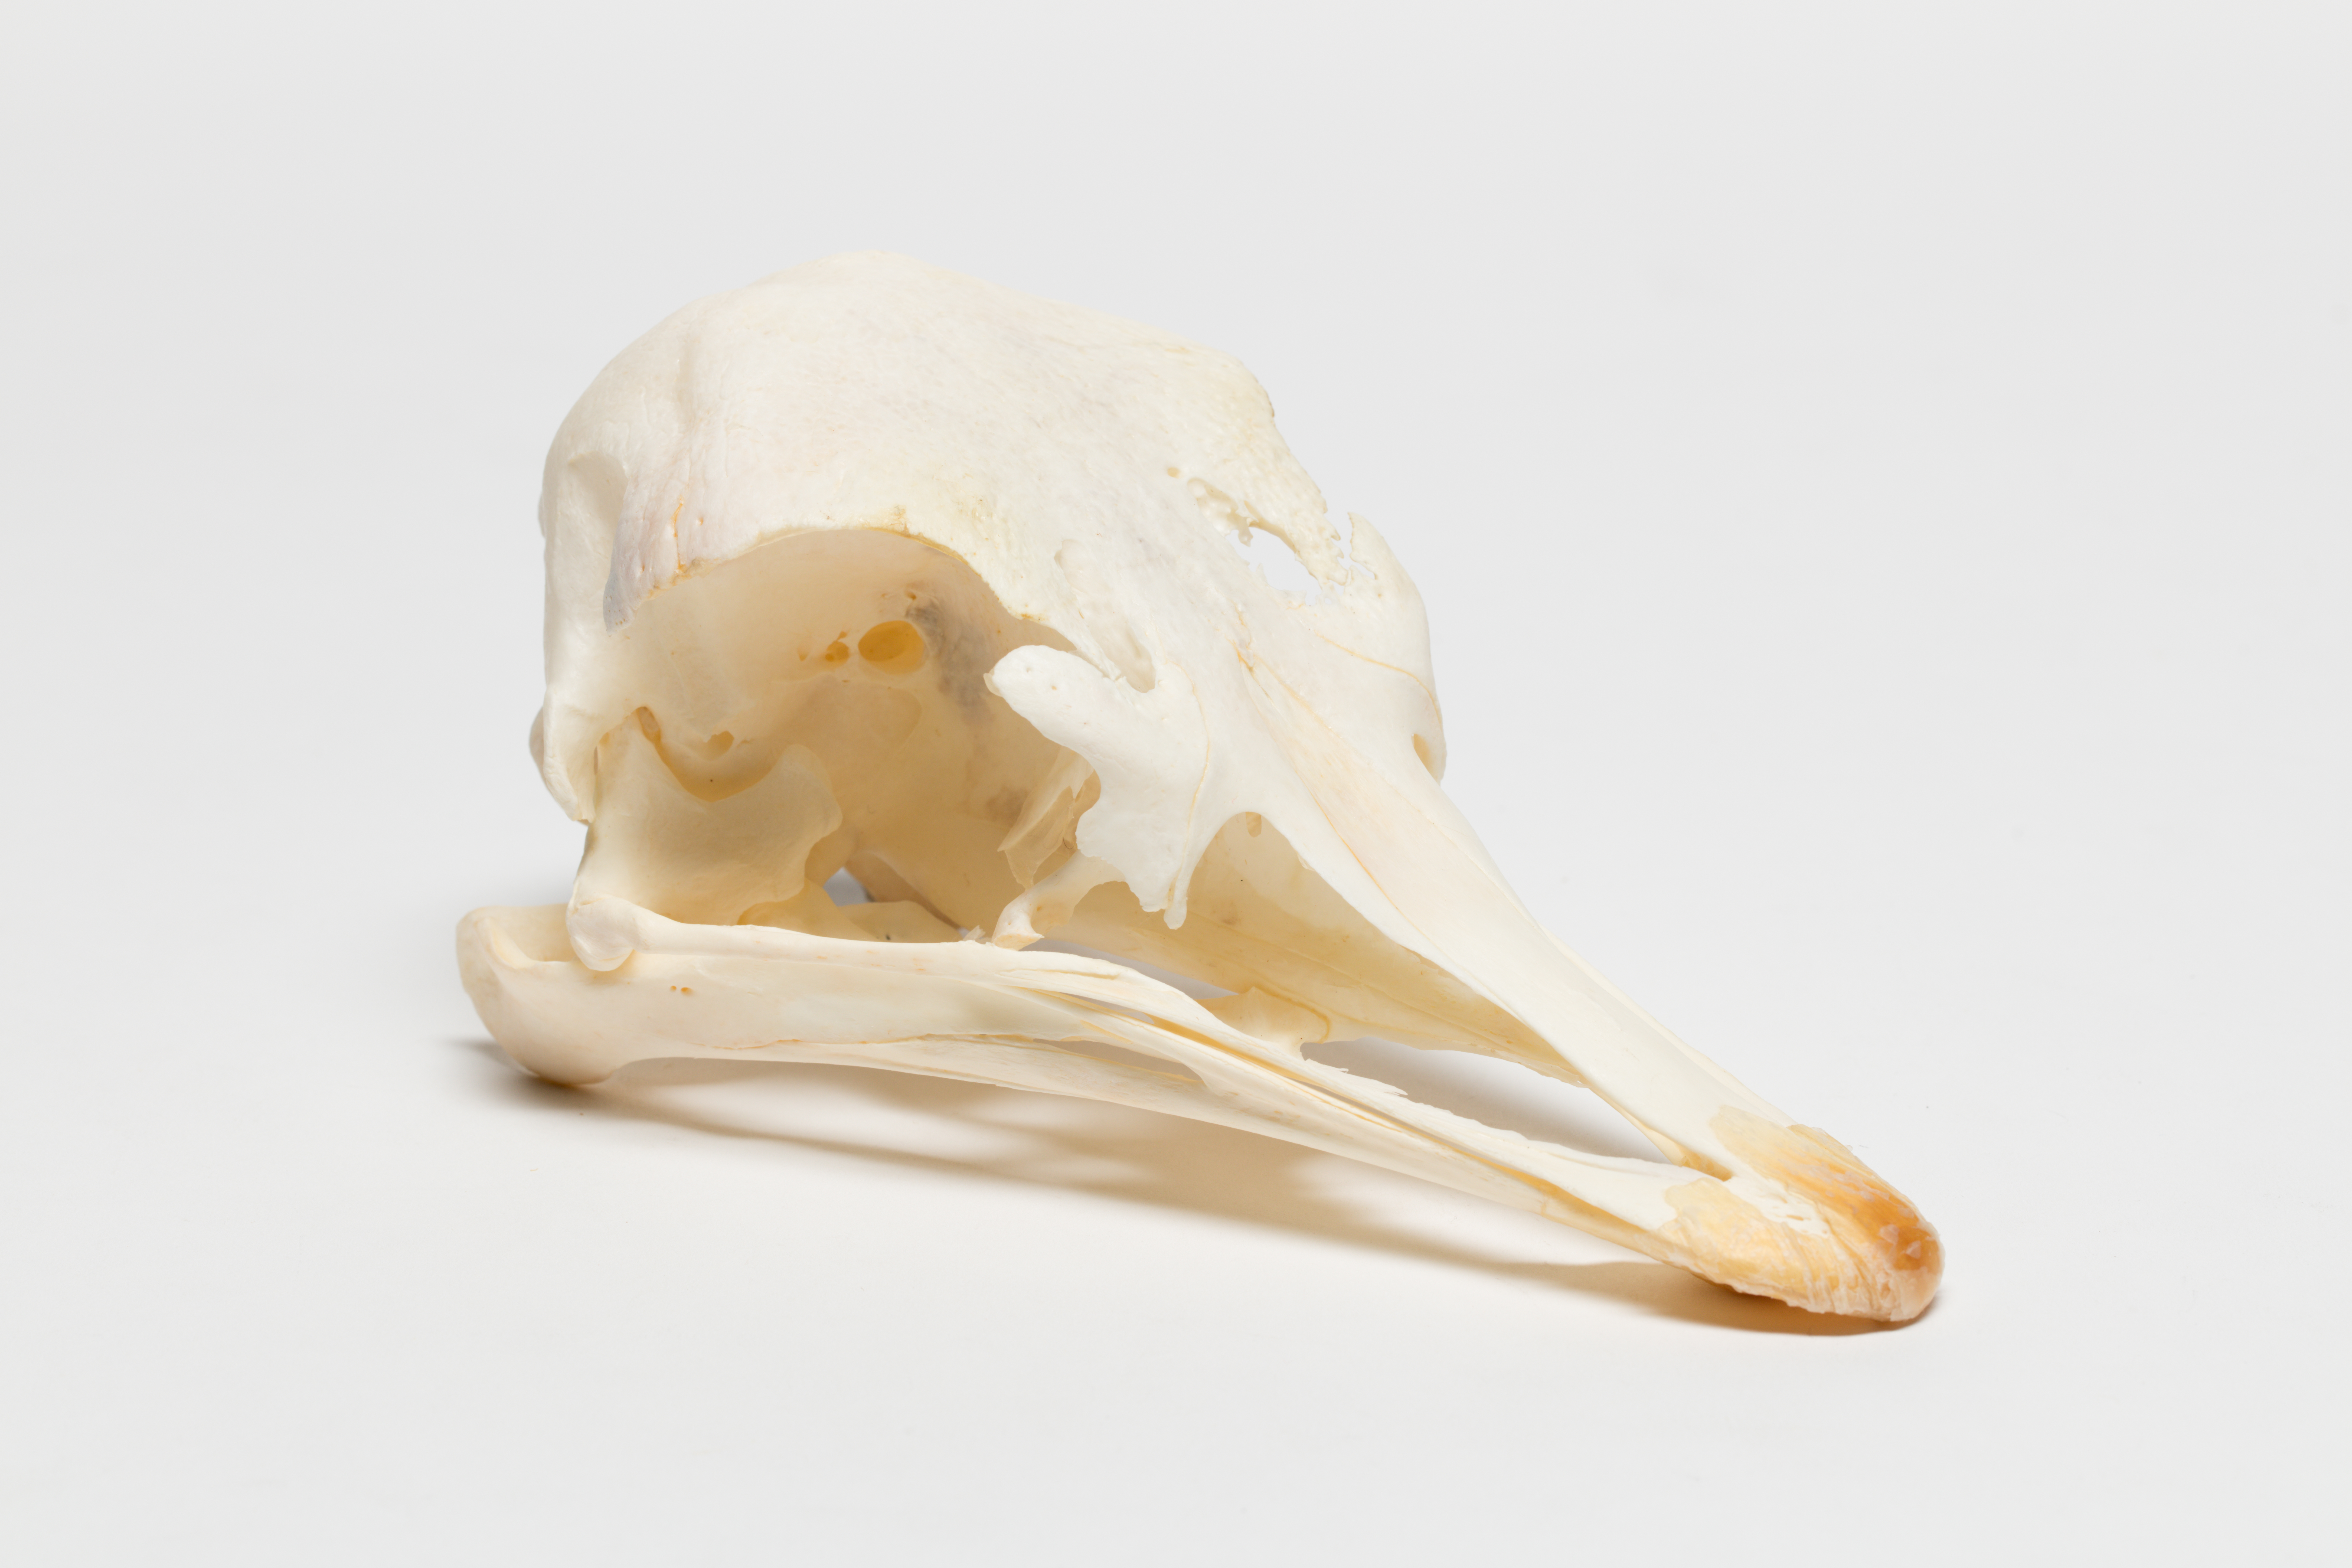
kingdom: Animalia
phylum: Chordata
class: Aves
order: Struthioniformes
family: Struthionidae
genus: Struthio
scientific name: Struthio camelus
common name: Common ostrich
